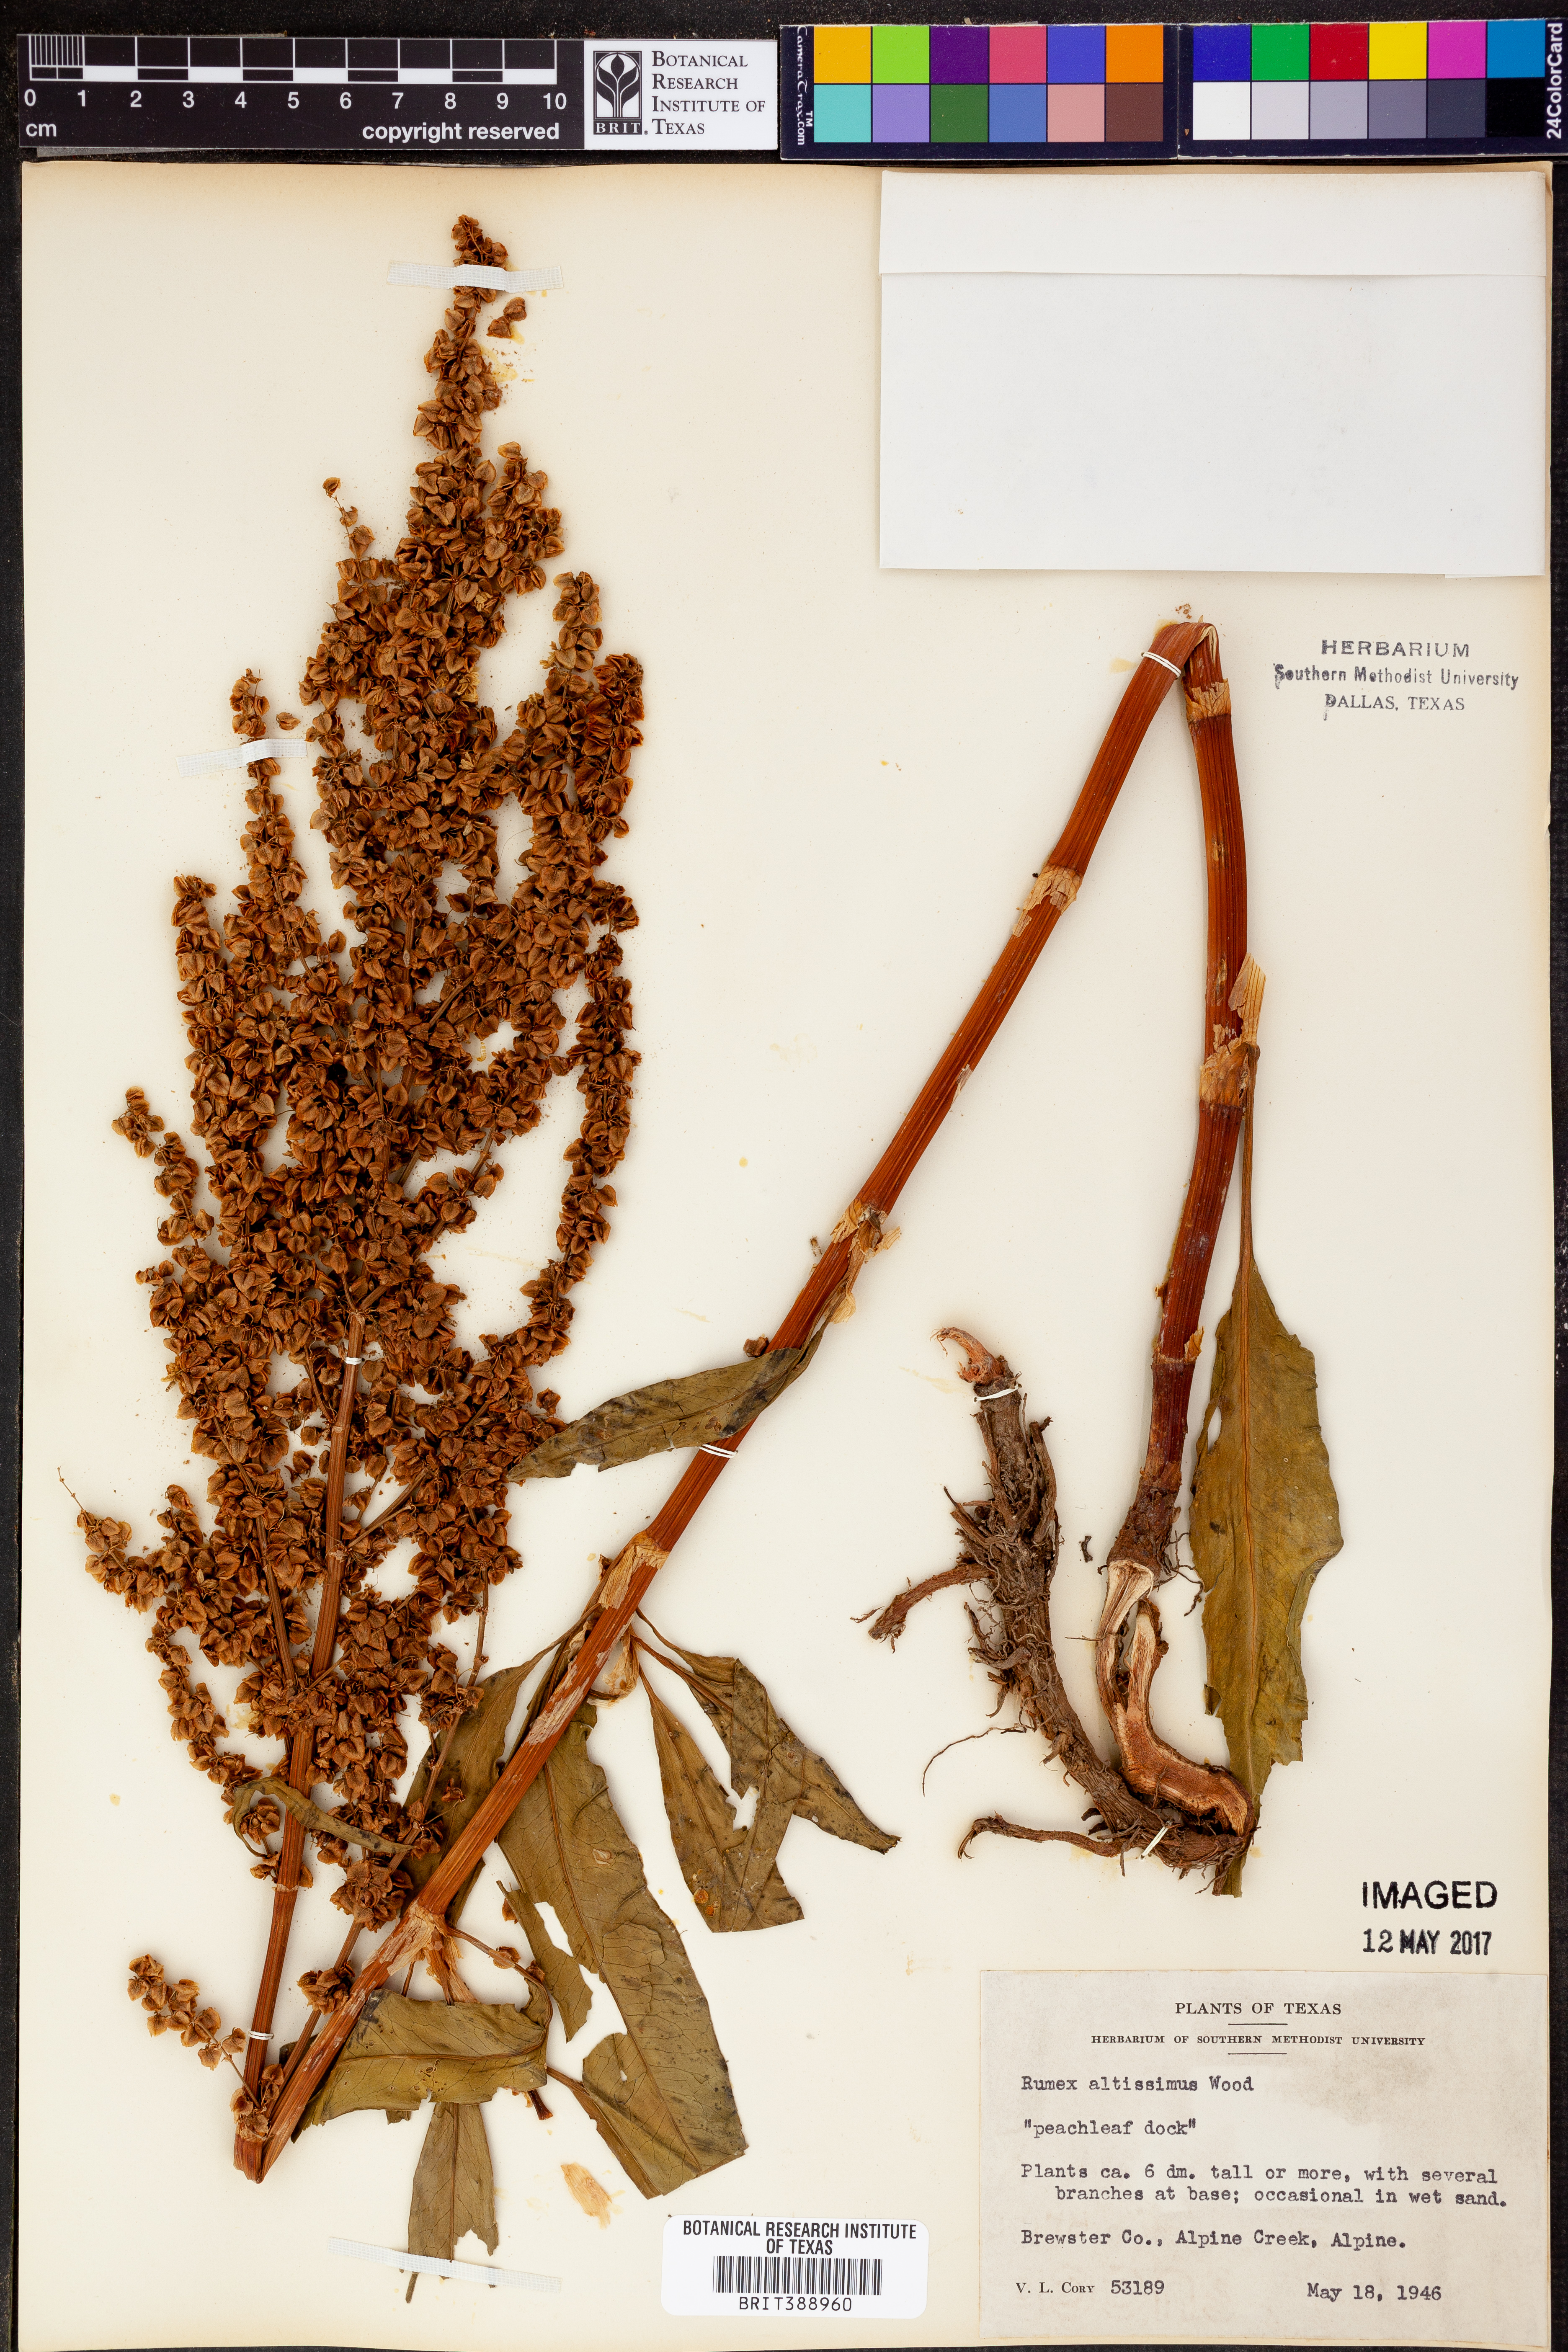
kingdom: Plantae
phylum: Tracheophyta
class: Magnoliopsida
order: Caryophyllales
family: Polygonaceae
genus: Rumex
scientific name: Rumex altissimus
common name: Smooth dock
